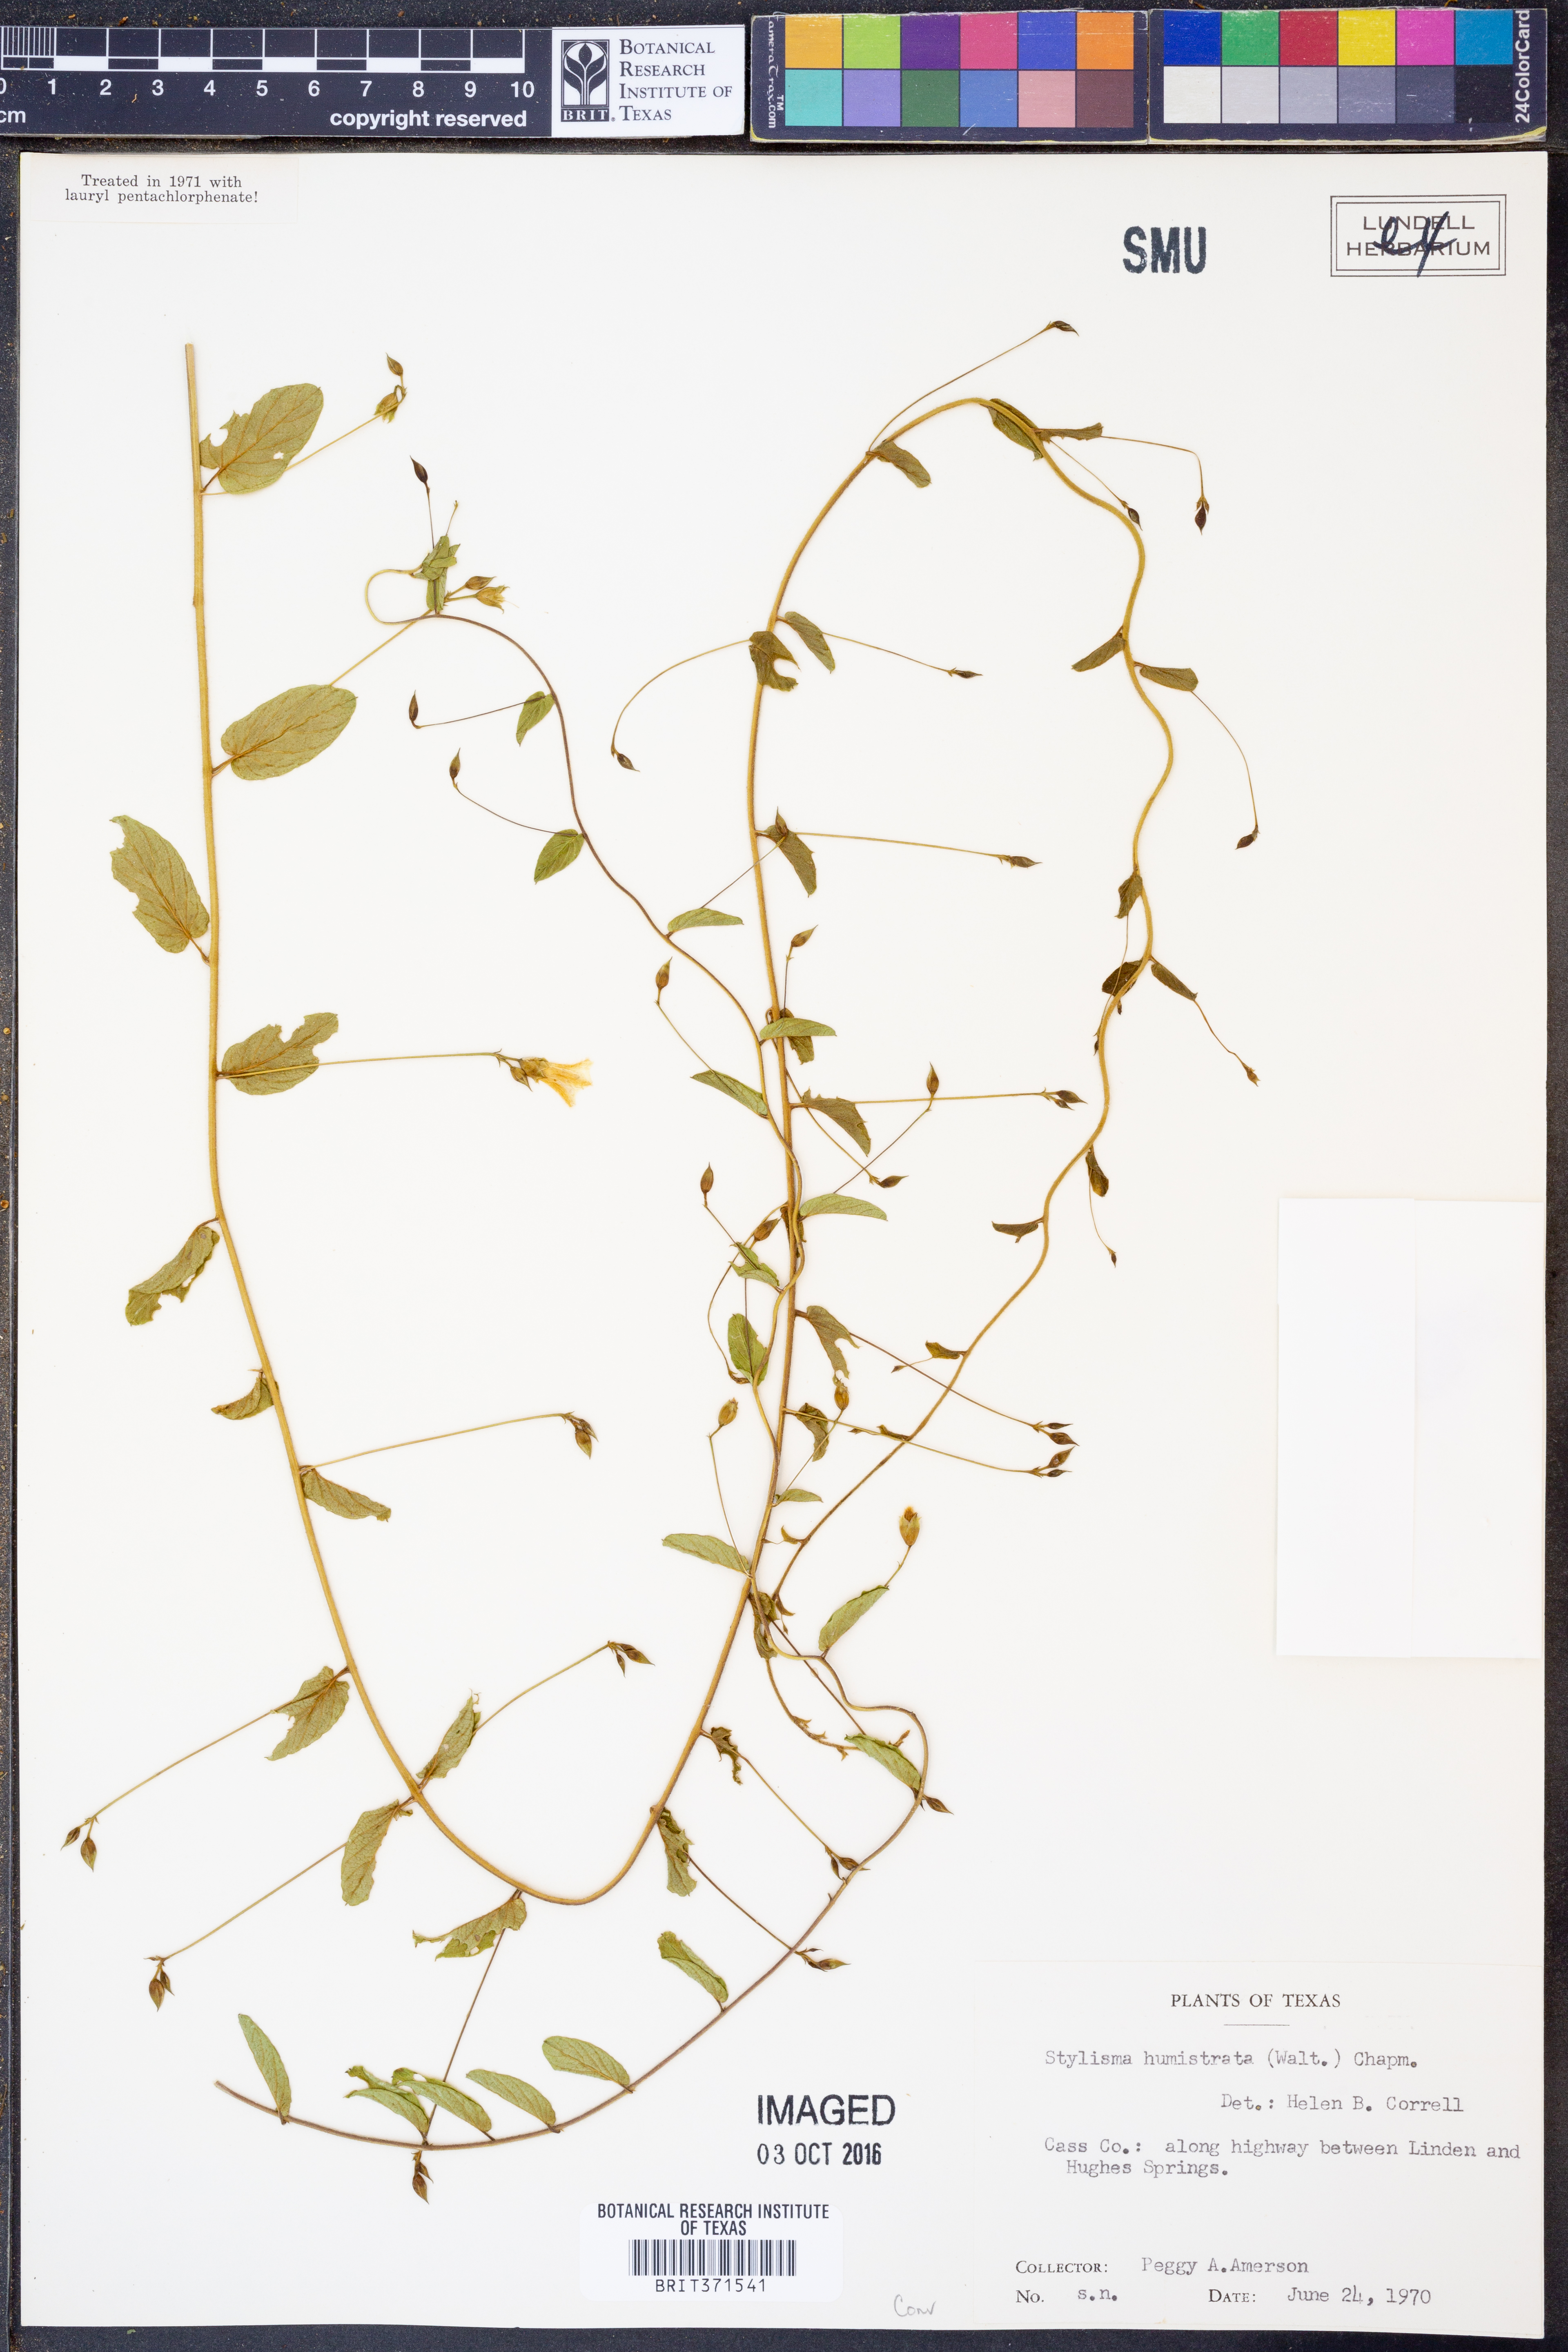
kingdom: Plantae
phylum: Tracheophyta
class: Magnoliopsida
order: Solanales
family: Convolvulaceae
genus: Stylisma
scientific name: Stylisma humistrata
